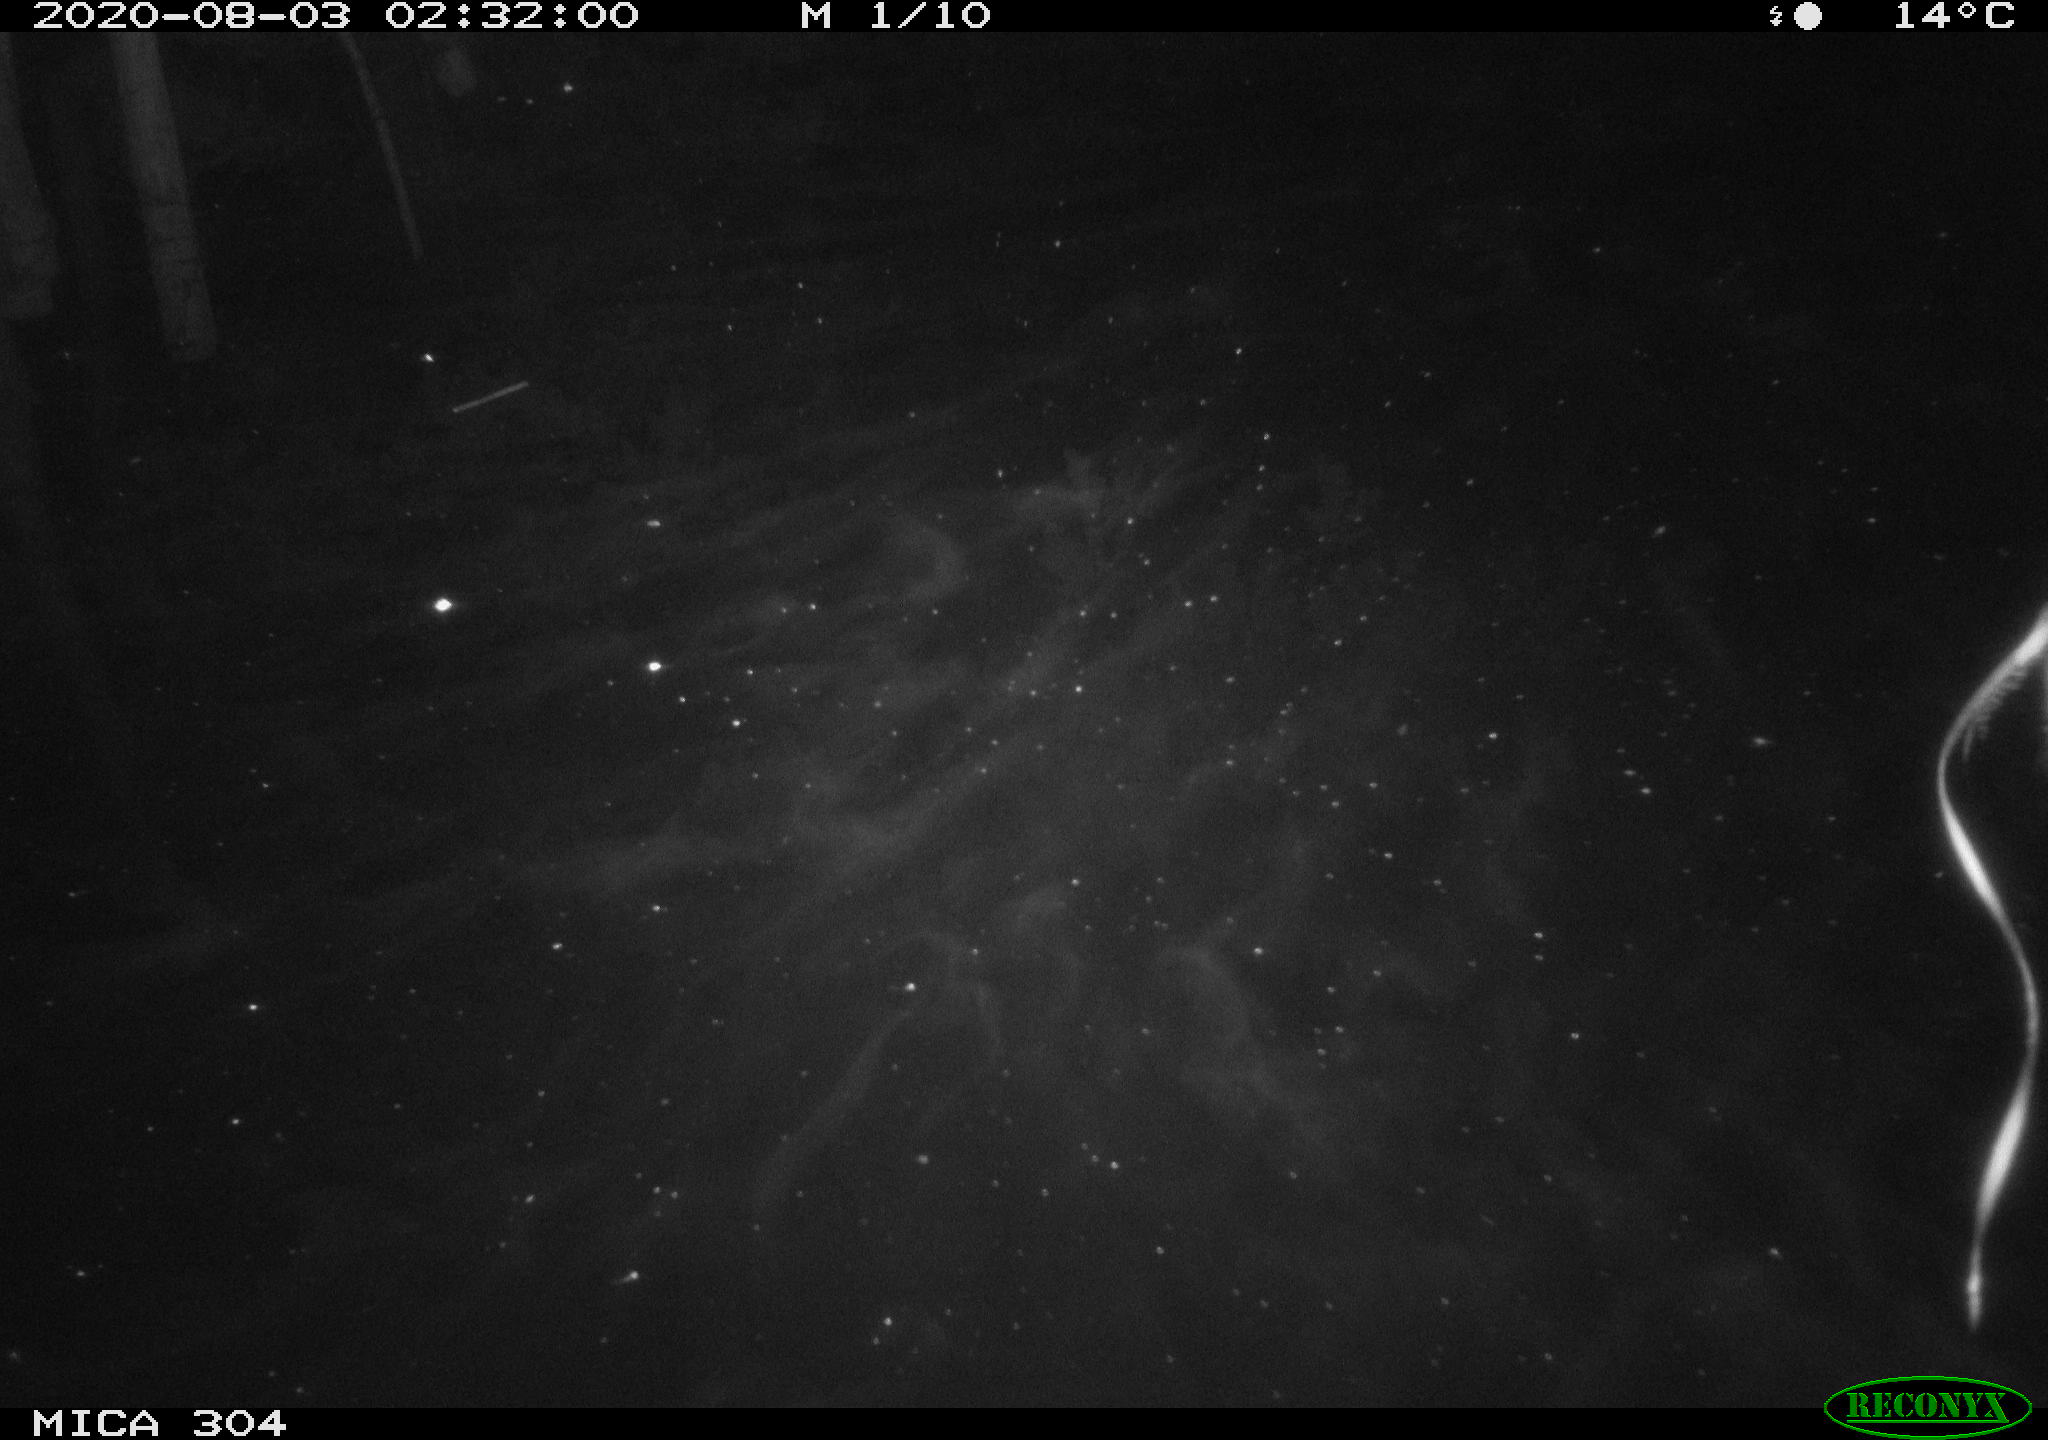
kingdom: Animalia
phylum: Chordata
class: Mammalia
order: Rodentia
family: Cricetidae
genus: Ondatra
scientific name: Ondatra zibethicus
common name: Muskrat
